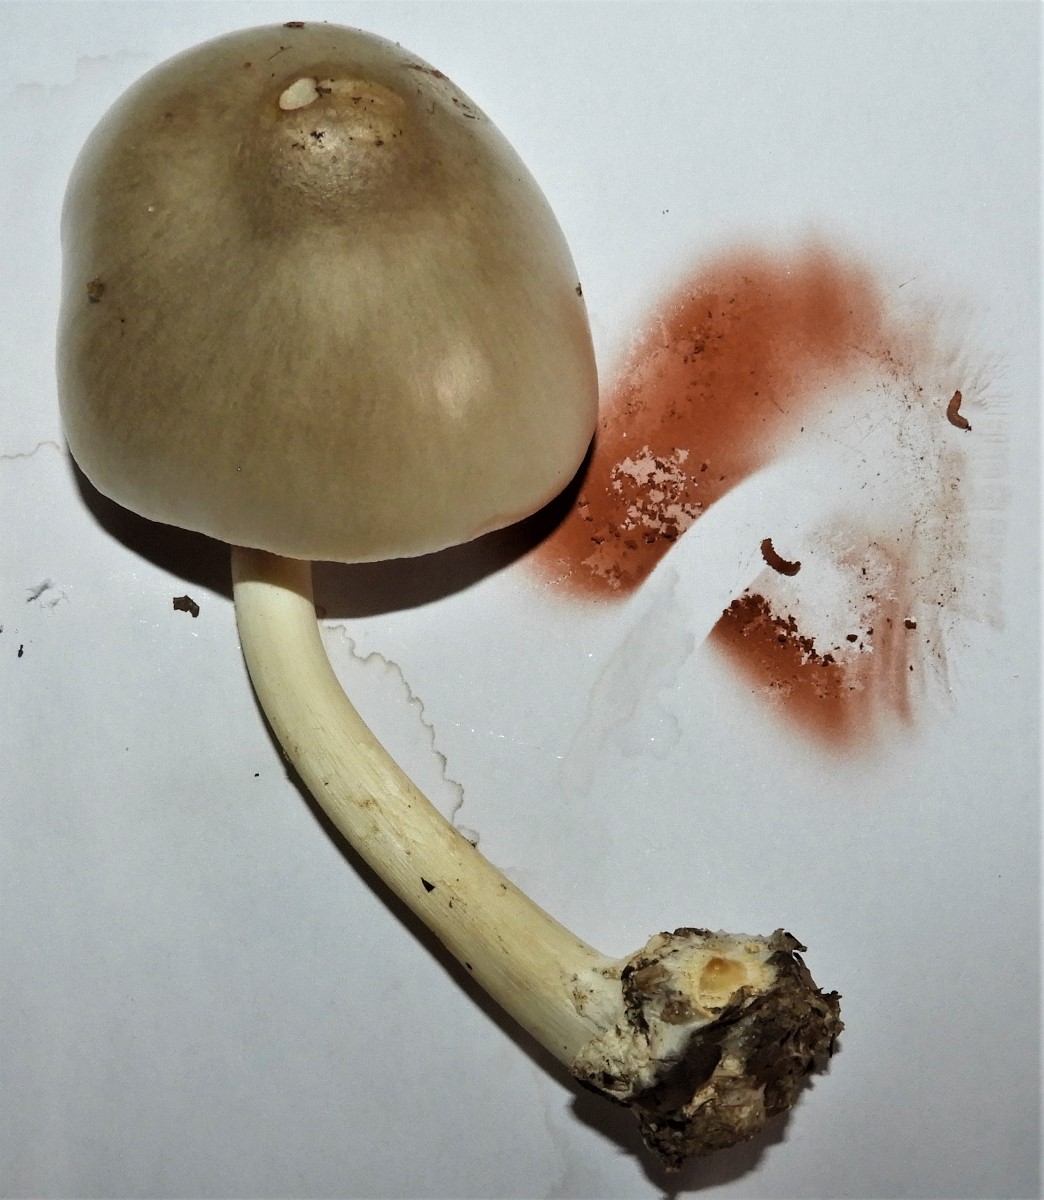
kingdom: Fungi
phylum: Basidiomycota
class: Agaricomycetes
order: Agaricales
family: Pluteaceae
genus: Volvopluteus
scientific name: Volvopluteus gloiocephalus
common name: høj posesvamp
